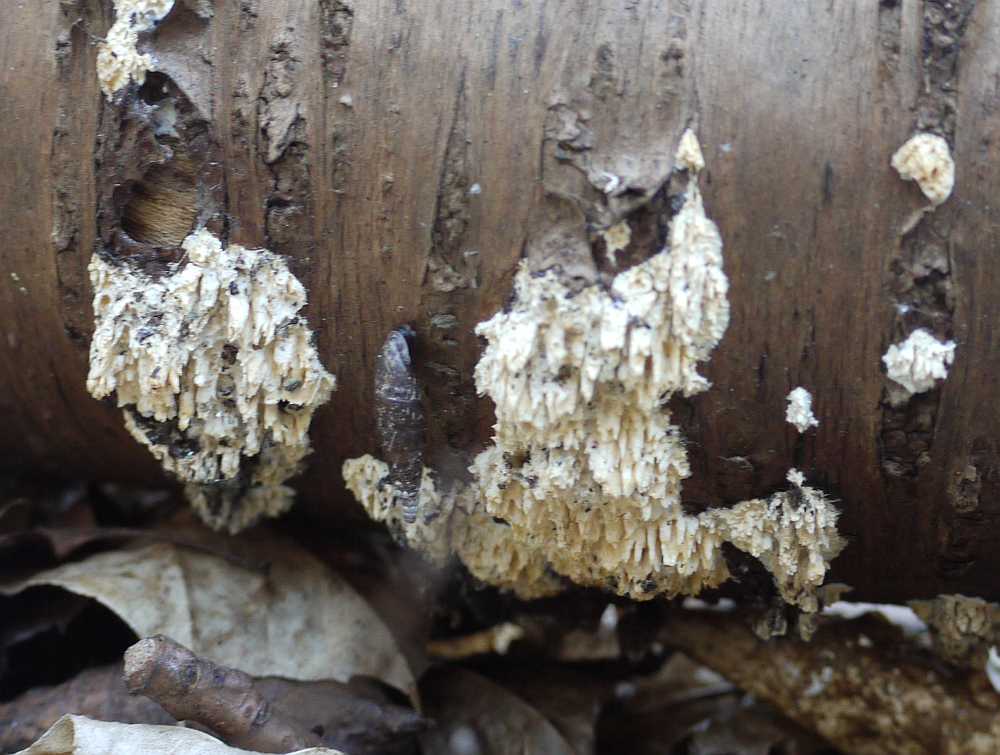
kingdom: Fungi
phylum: Basidiomycota
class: Agaricomycetes
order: Hymenochaetales
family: Schizoporaceae
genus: Xylodon
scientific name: Xylodon radula
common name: grovtandet kalkskind
